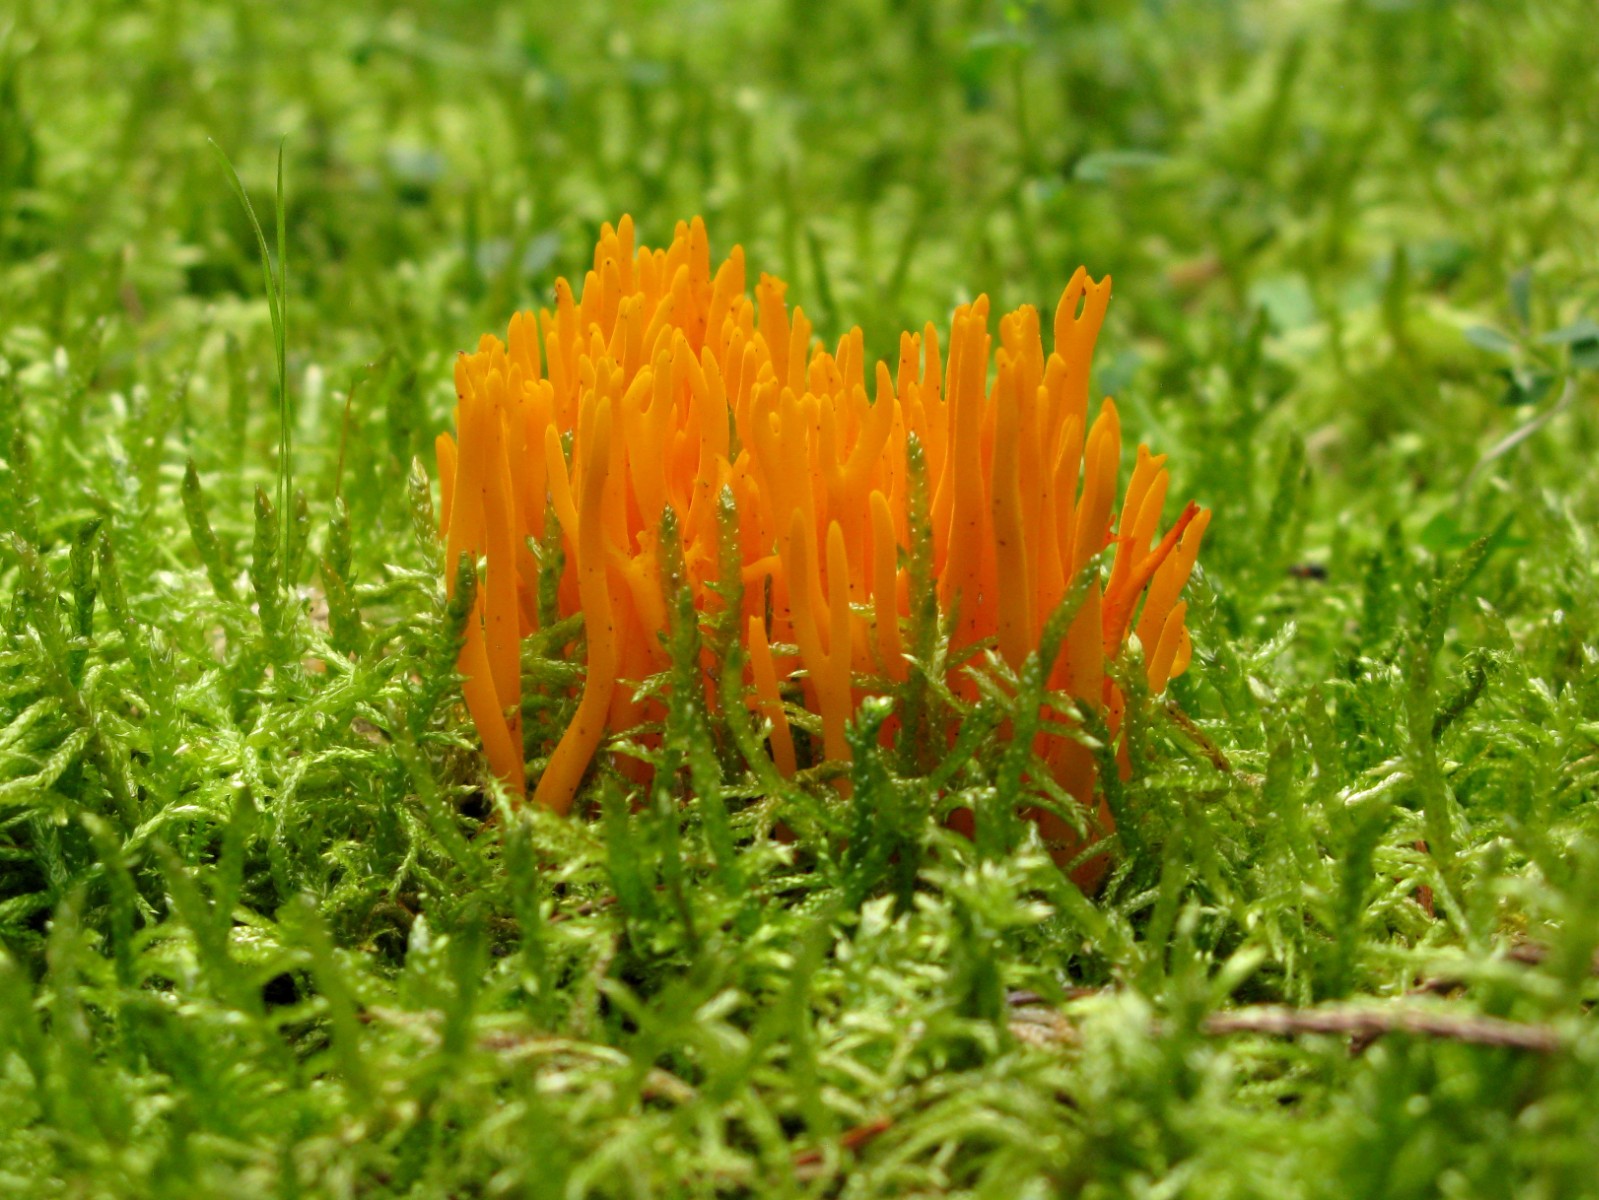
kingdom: Fungi
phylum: Basidiomycota
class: Dacrymycetes
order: Dacrymycetales
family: Dacrymycetaceae
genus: Calocera
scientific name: Calocera viscosa
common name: almindelig guldgaffel
